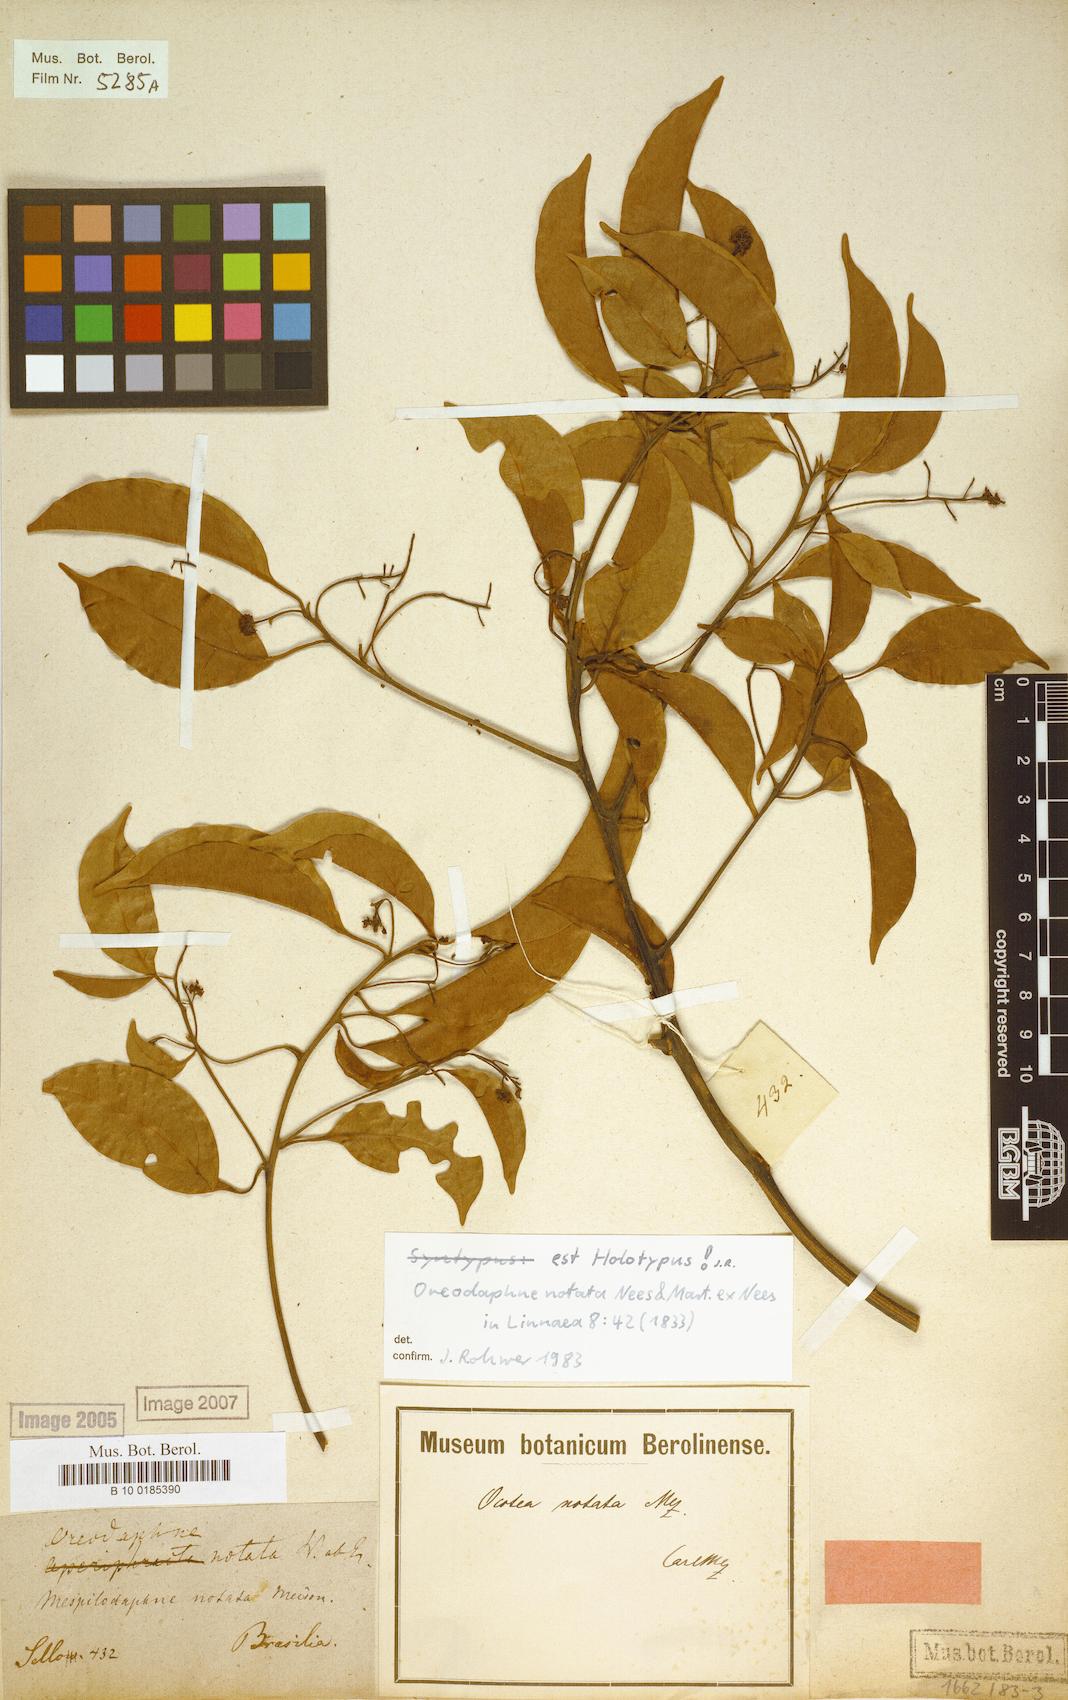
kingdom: Plantae
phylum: Tracheophyta
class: Magnoliopsida
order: Laurales
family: Lauraceae
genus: Mespilodaphne
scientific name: Mespilodaphne notata
